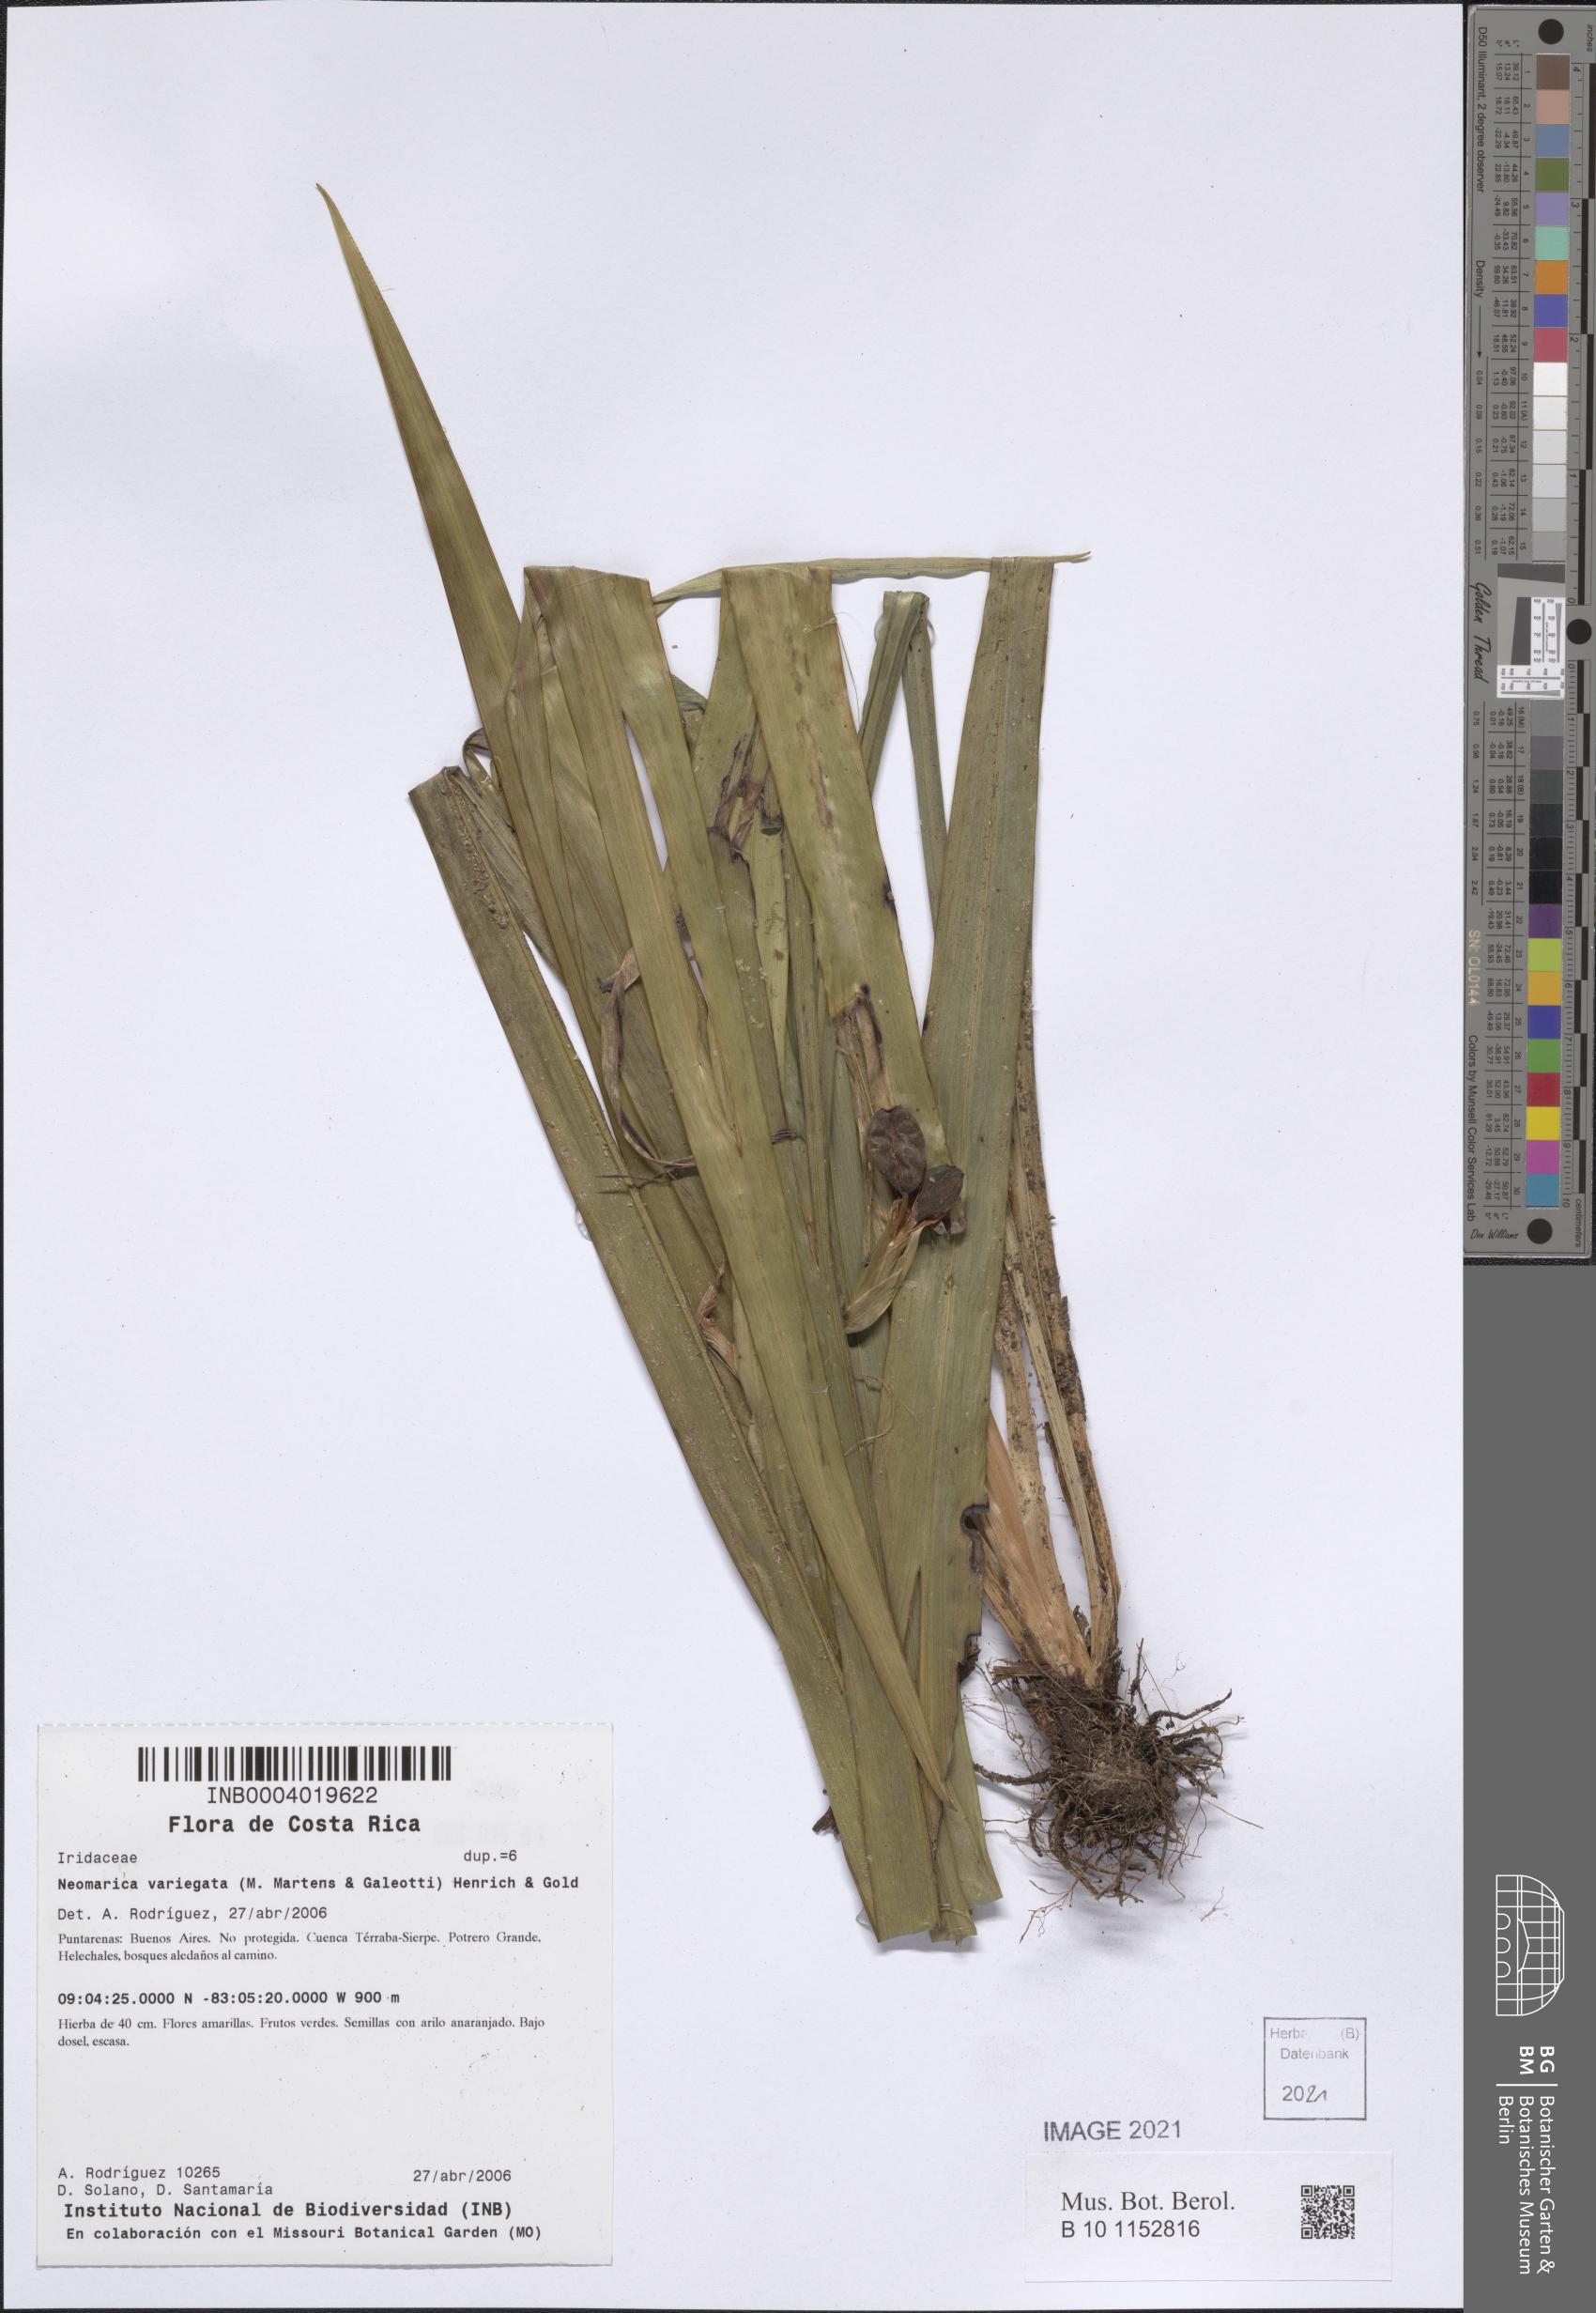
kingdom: Plantae
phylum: Tracheophyta
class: Liliopsida
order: Asparagales
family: Iridaceae
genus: Trimezia
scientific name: Trimezia variegata
